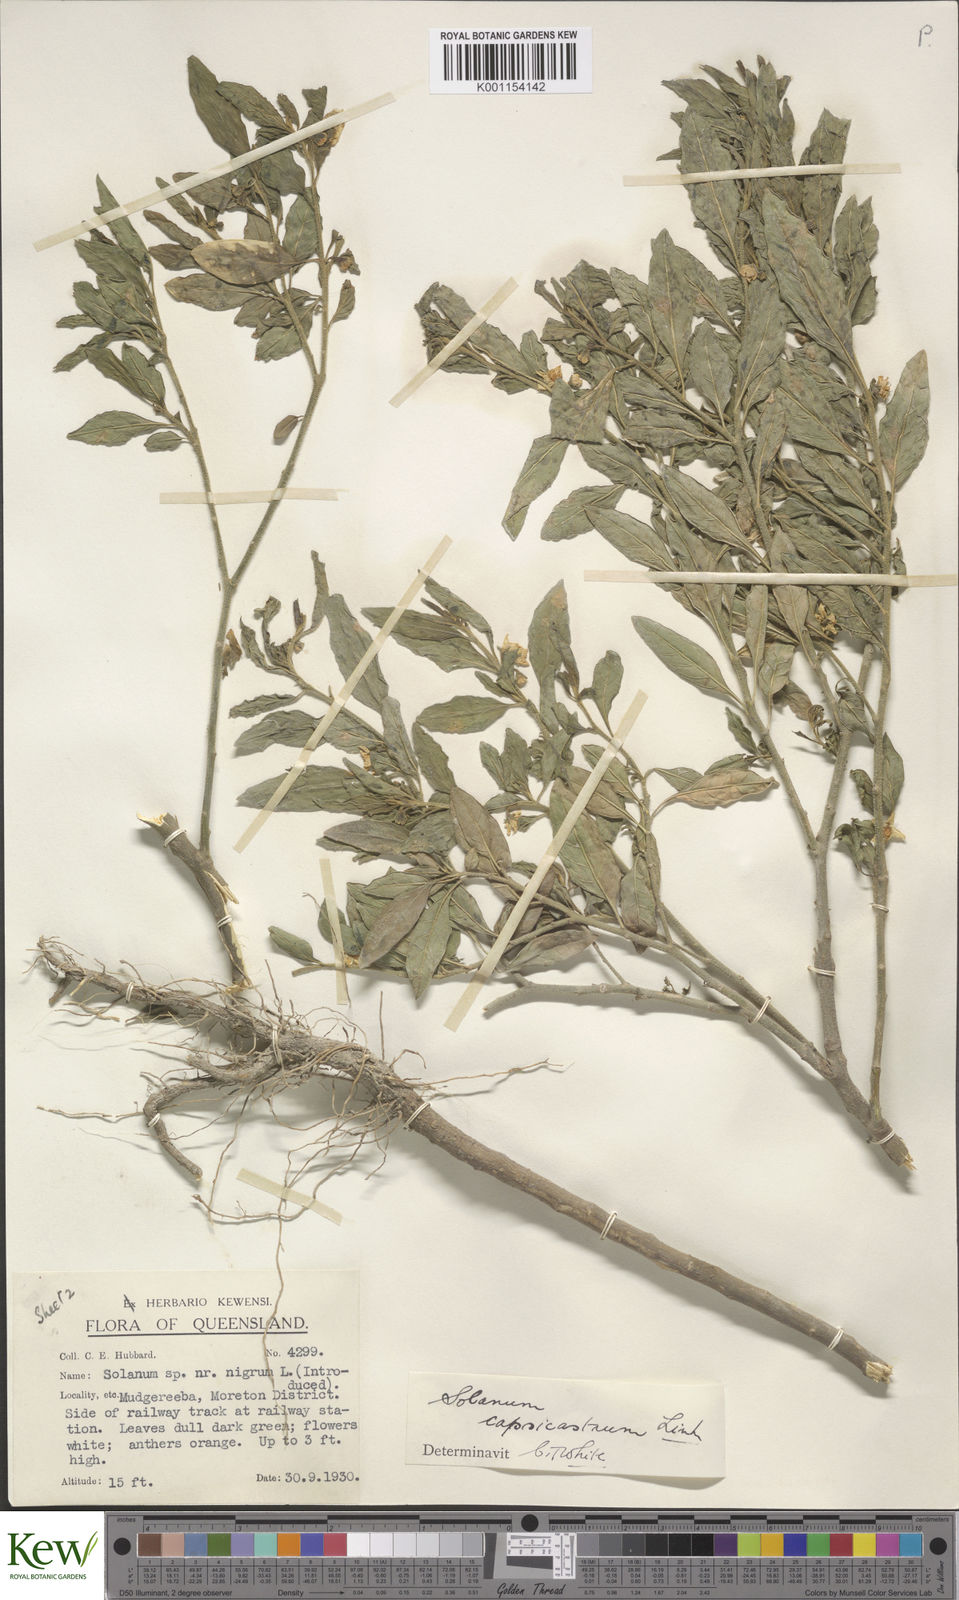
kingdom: Plantae
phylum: Tracheophyta
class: Magnoliopsida
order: Solanales
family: Solanaceae
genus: Solanum
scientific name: Solanum pseudocapsicum
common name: Jerusalem cherry
